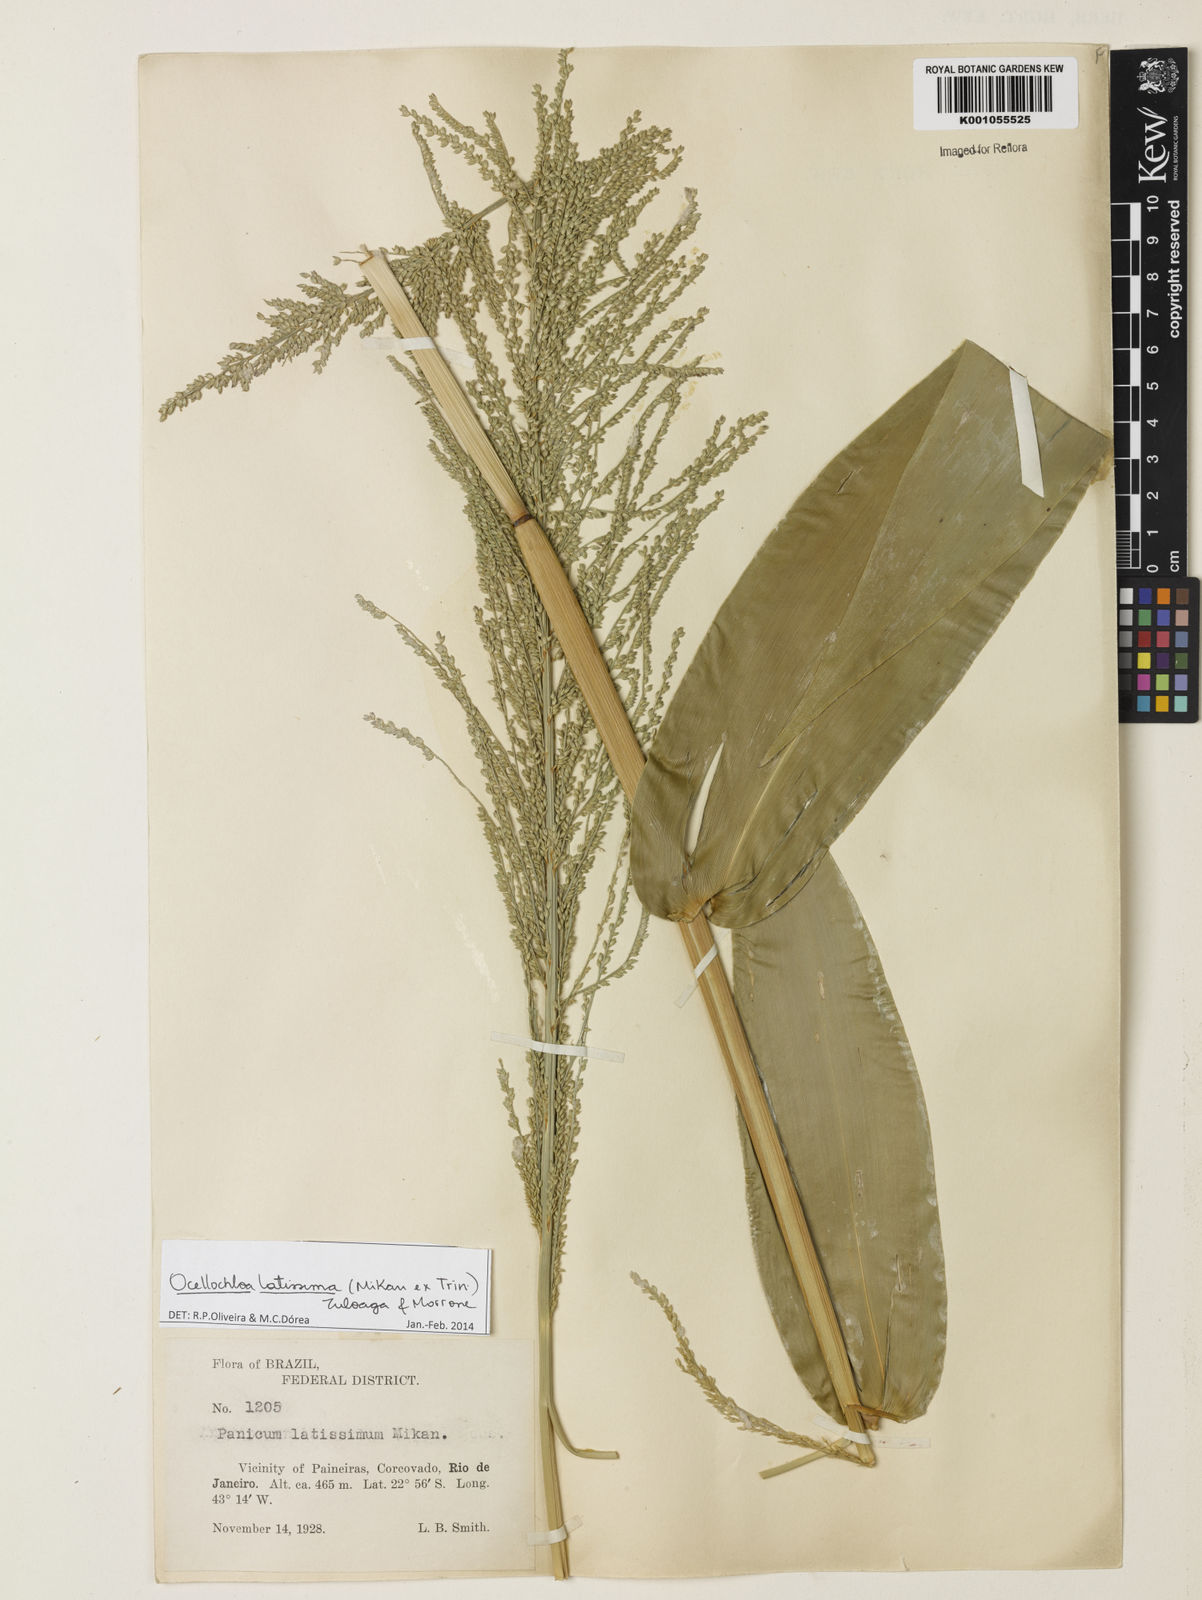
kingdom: Plantae
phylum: Tracheophyta
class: Liliopsida
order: Poales
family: Poaceae
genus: Ocellochloa
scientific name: Ocellochloa latissima
